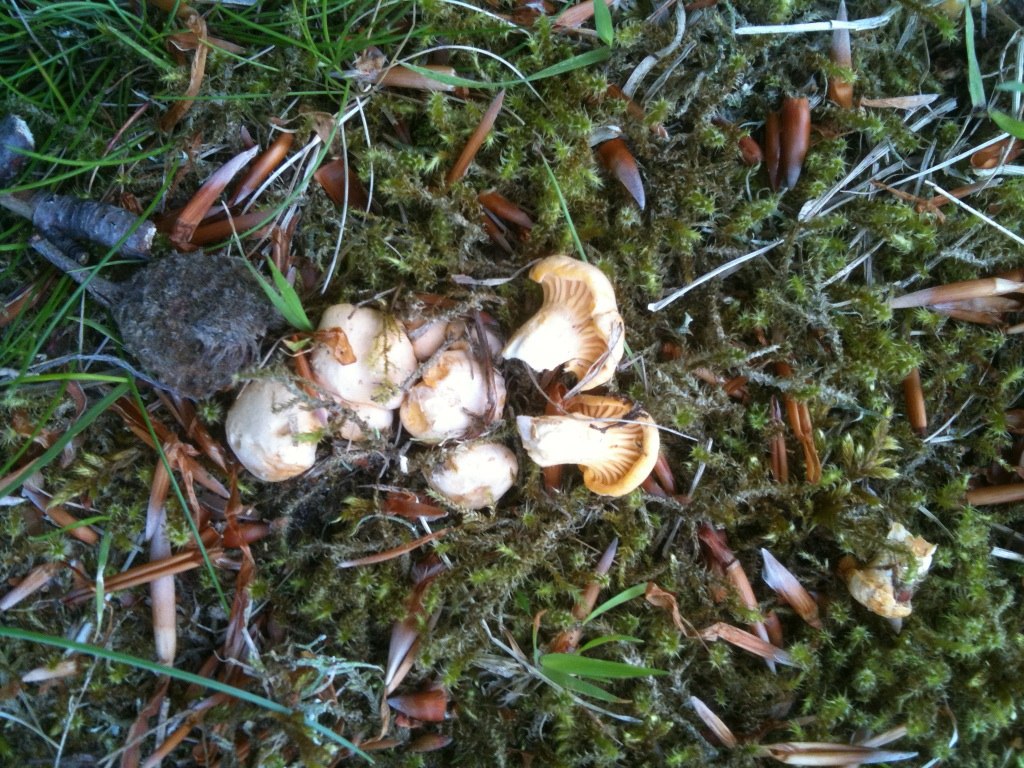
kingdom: Fungi
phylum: Basidiomycota
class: Agaricomycetes
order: Cantharellales
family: Hydnaceae
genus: Cantharellus
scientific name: Cantharellus pallens
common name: bleg kantarel
